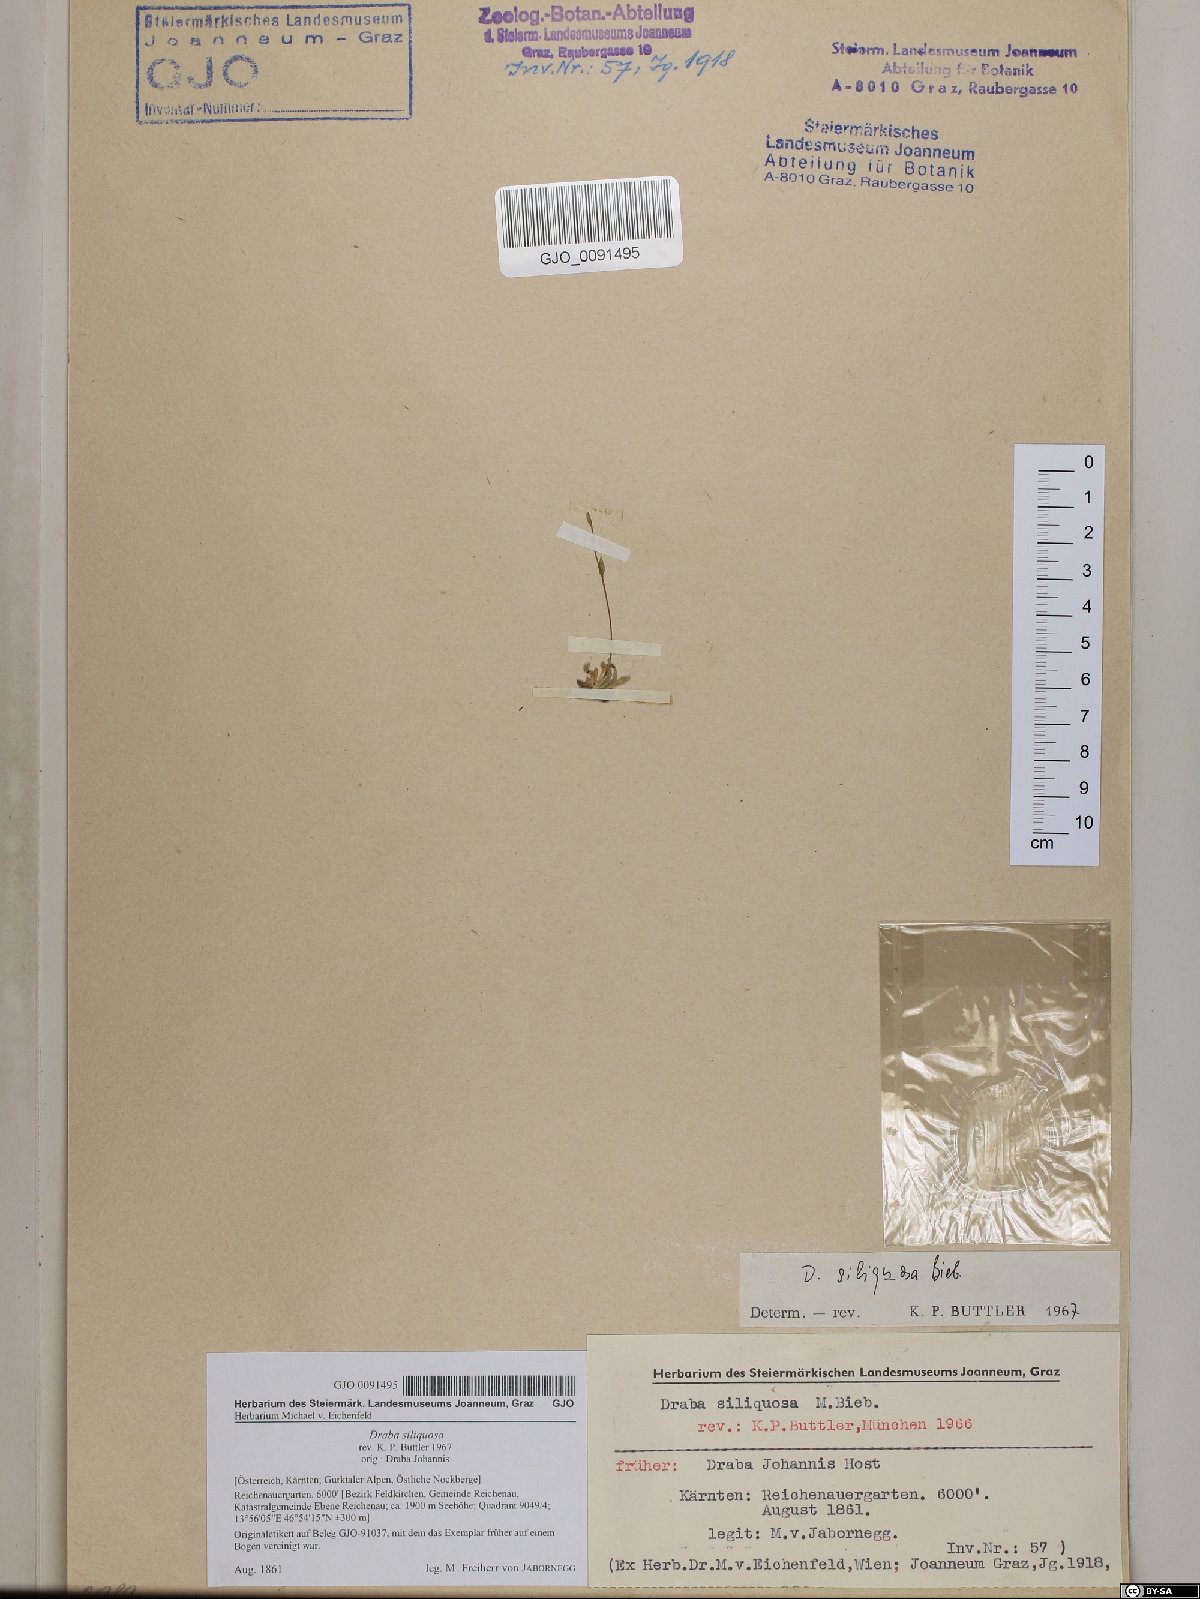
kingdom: Plantae
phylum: Tracheophyta
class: Magnoliopsida
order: Brassicales
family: Brassicaceae
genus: Draba
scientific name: Draba siliquosa
